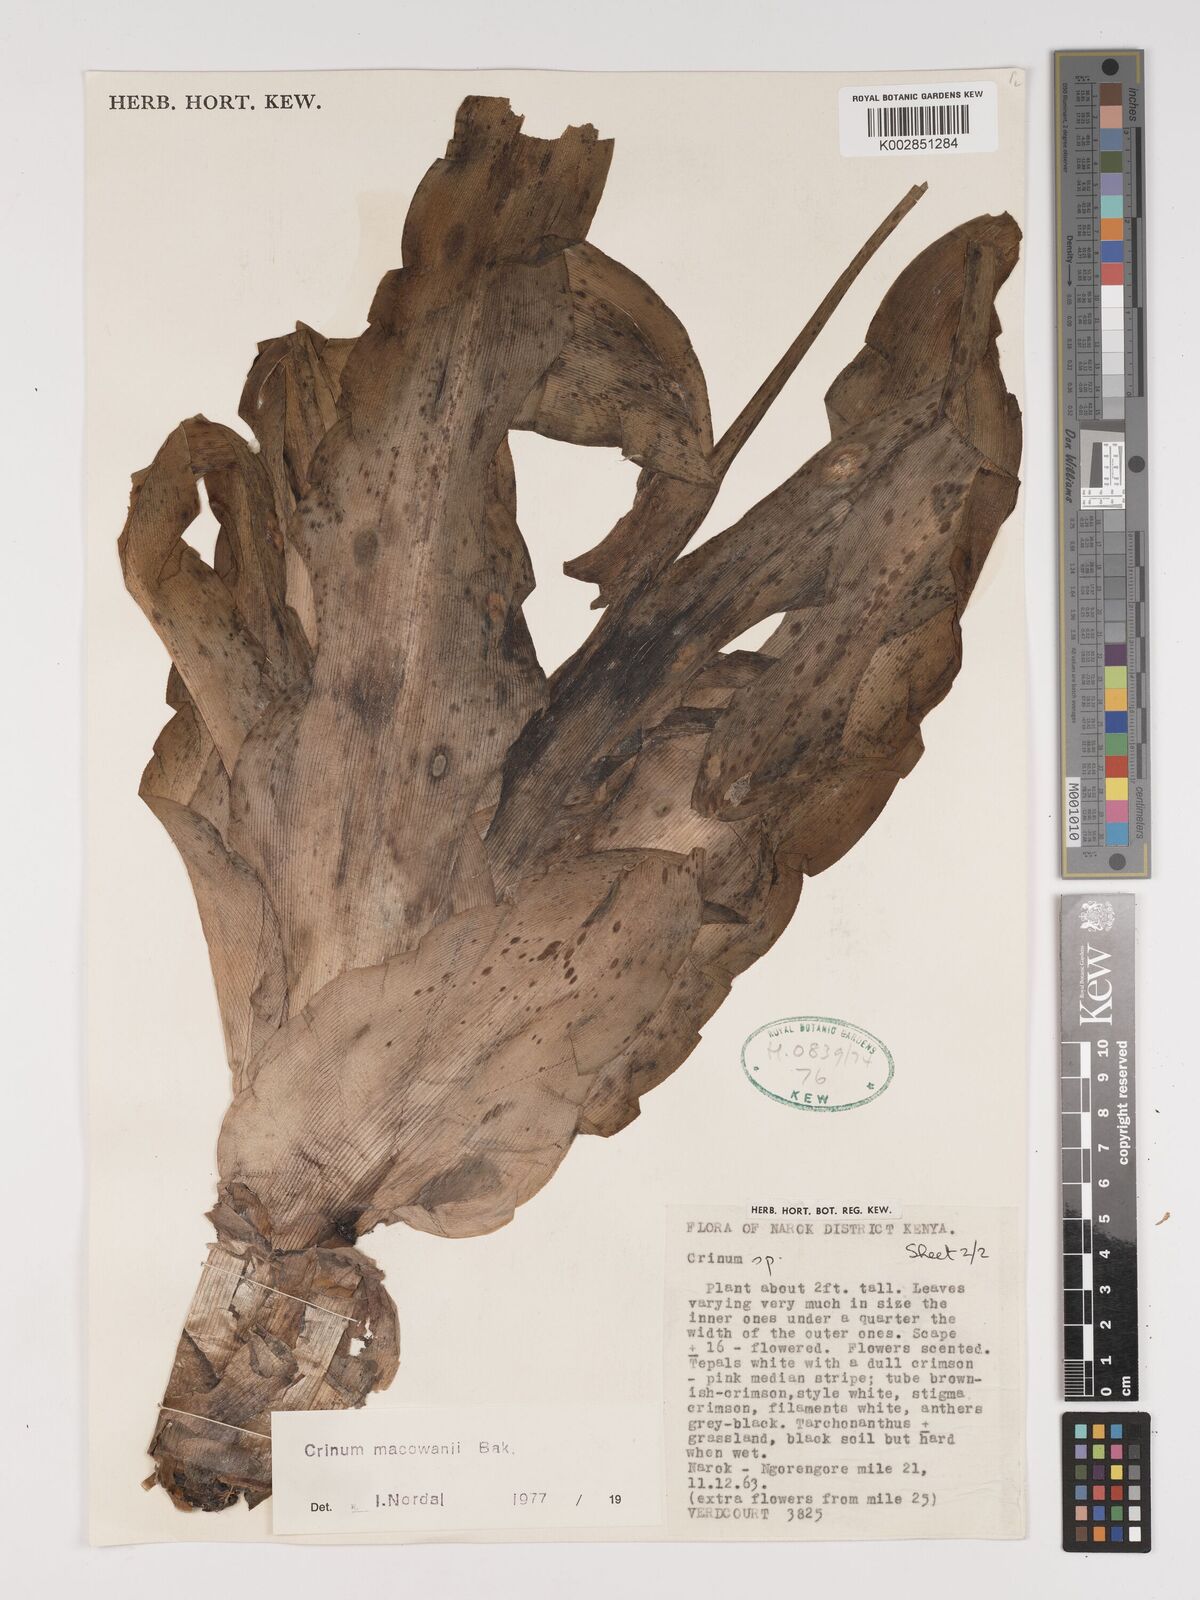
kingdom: Plantae
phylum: Tracheophyta
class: Liliopsida
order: Asparagales
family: Amaryllidaceae
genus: Crinum
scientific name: Crinum macowanii
